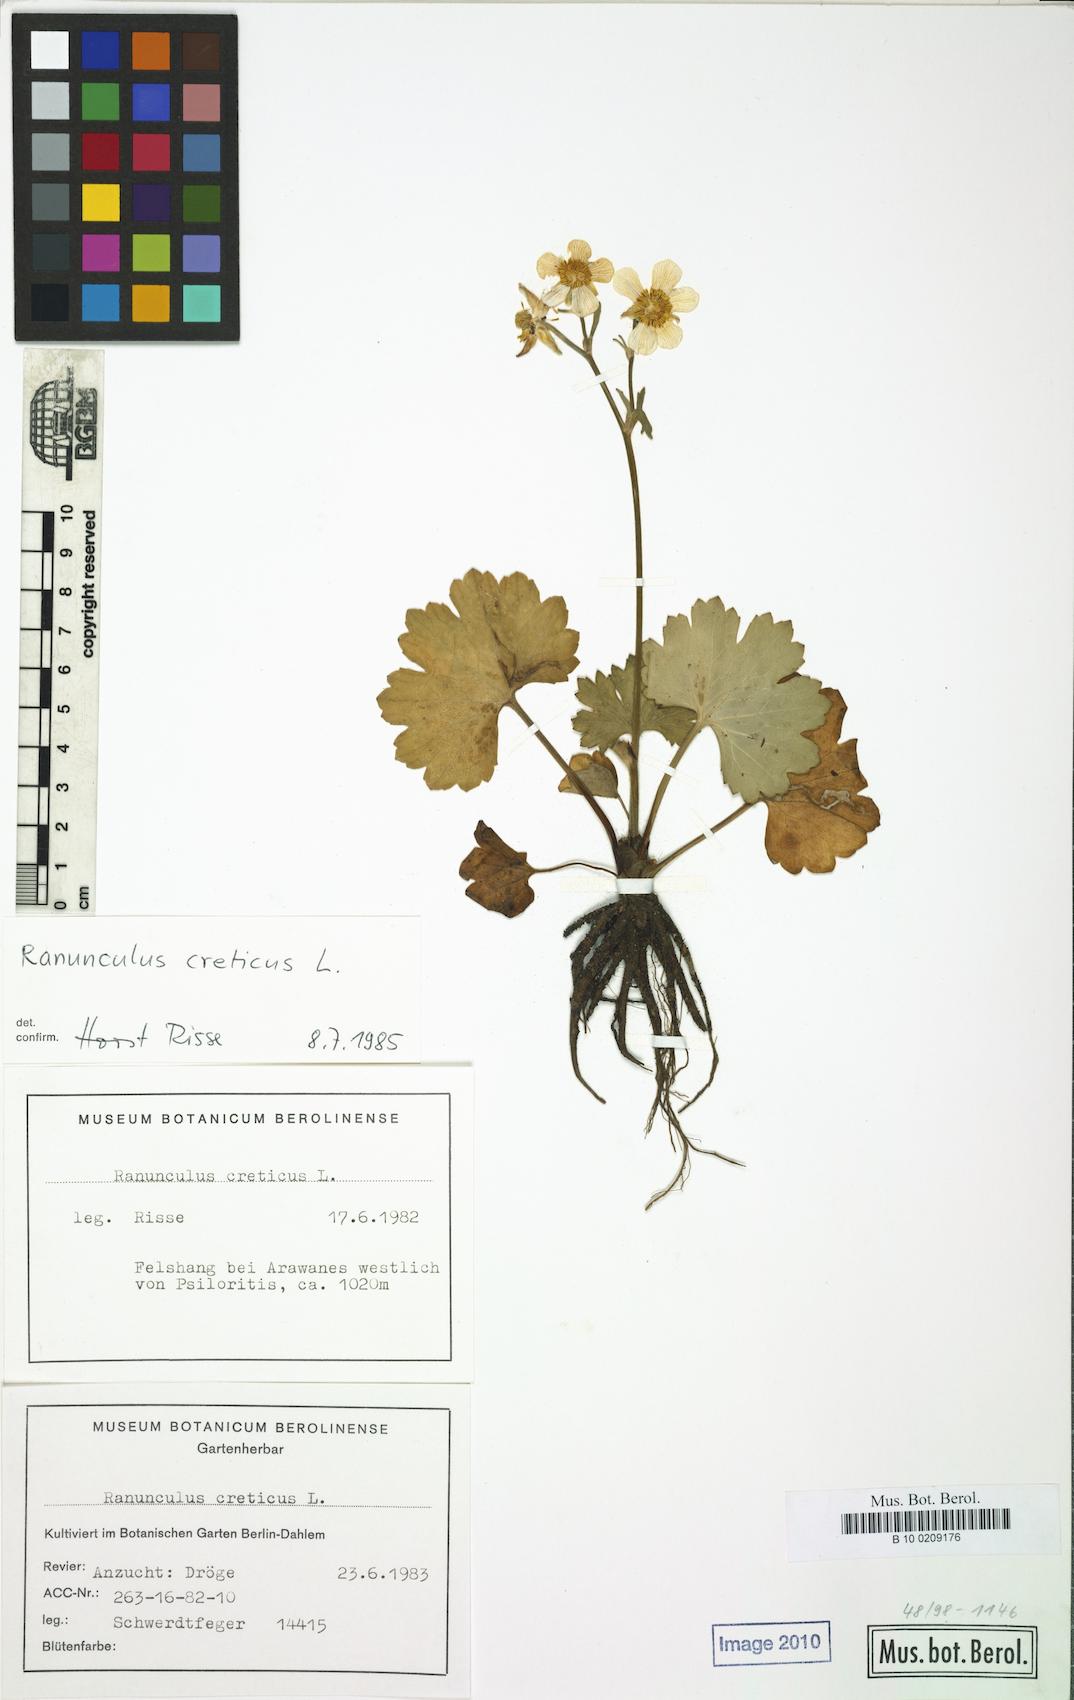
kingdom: Plantae
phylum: Tracheophyta
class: Magnoliopsida
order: Ranunculales
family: Ranunculaceae
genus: Ranunculus
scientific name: Ranunculus creticus
